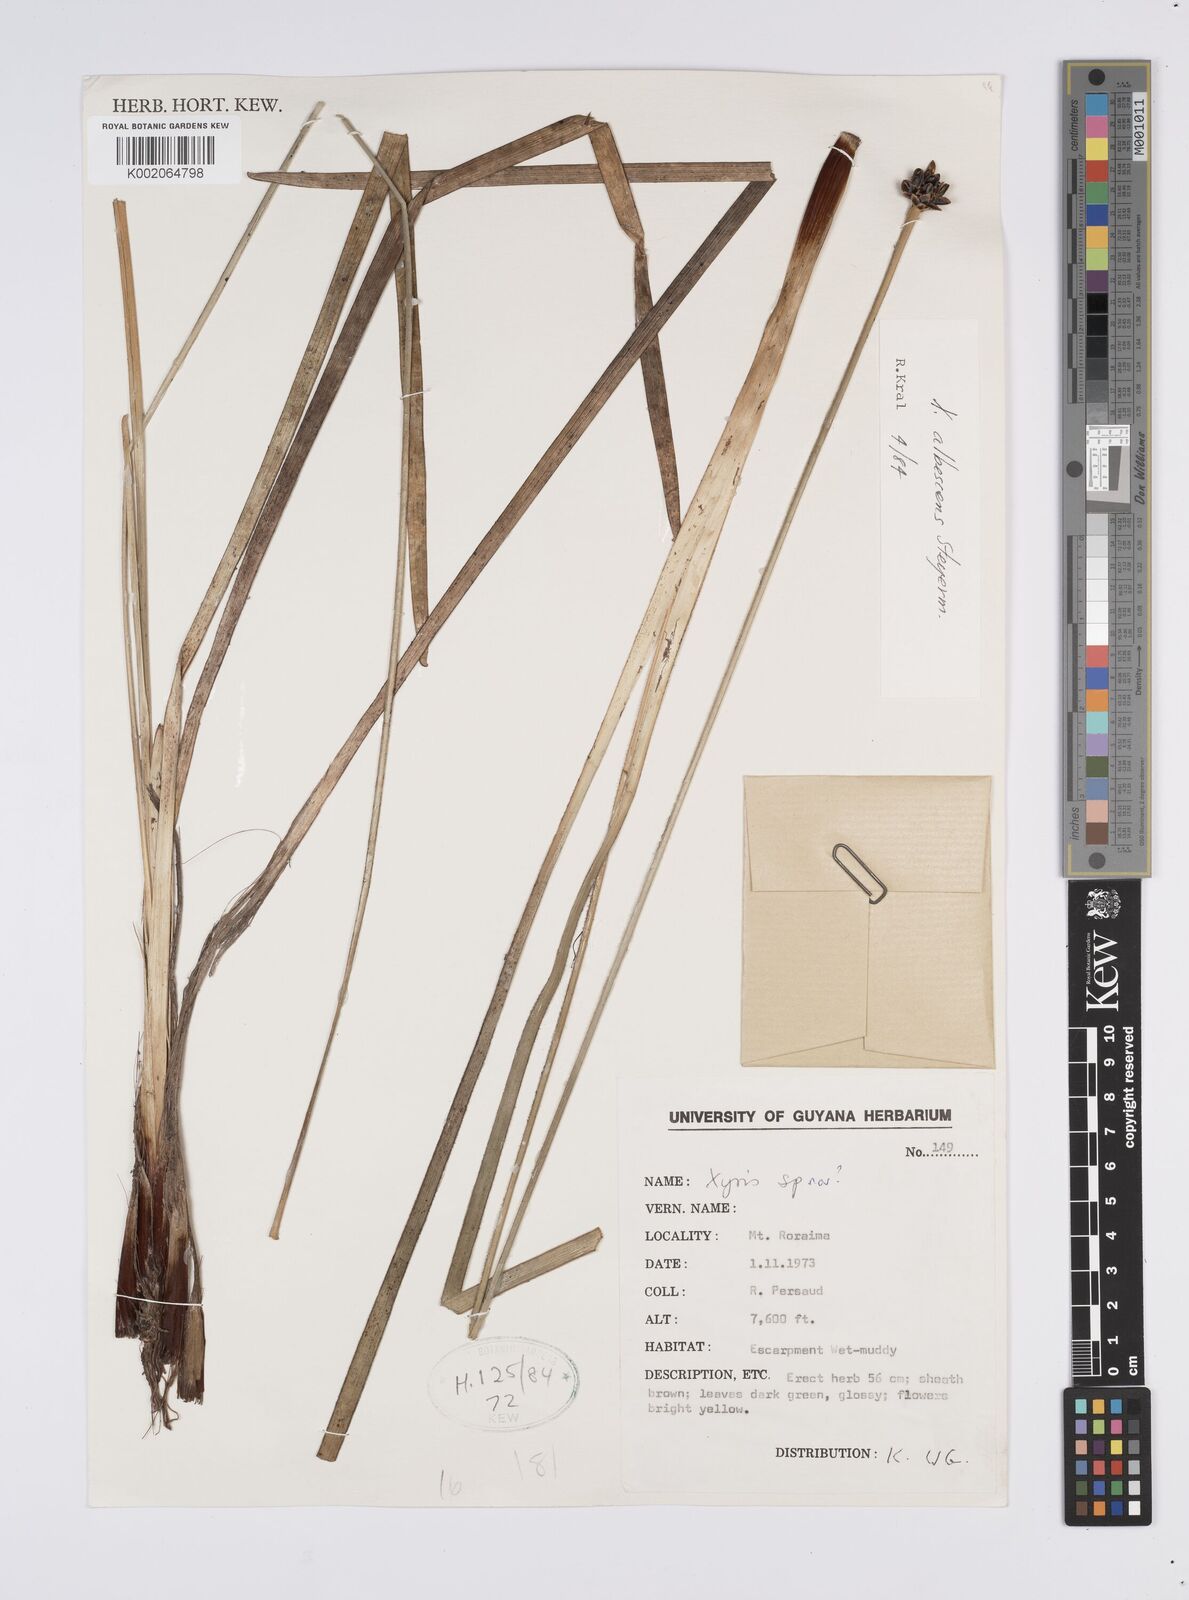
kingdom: Plantae
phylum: Tracheophyta
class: Liliopsida
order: Poales
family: Xyridaceae
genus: Xyris
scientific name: Xyris albescens
